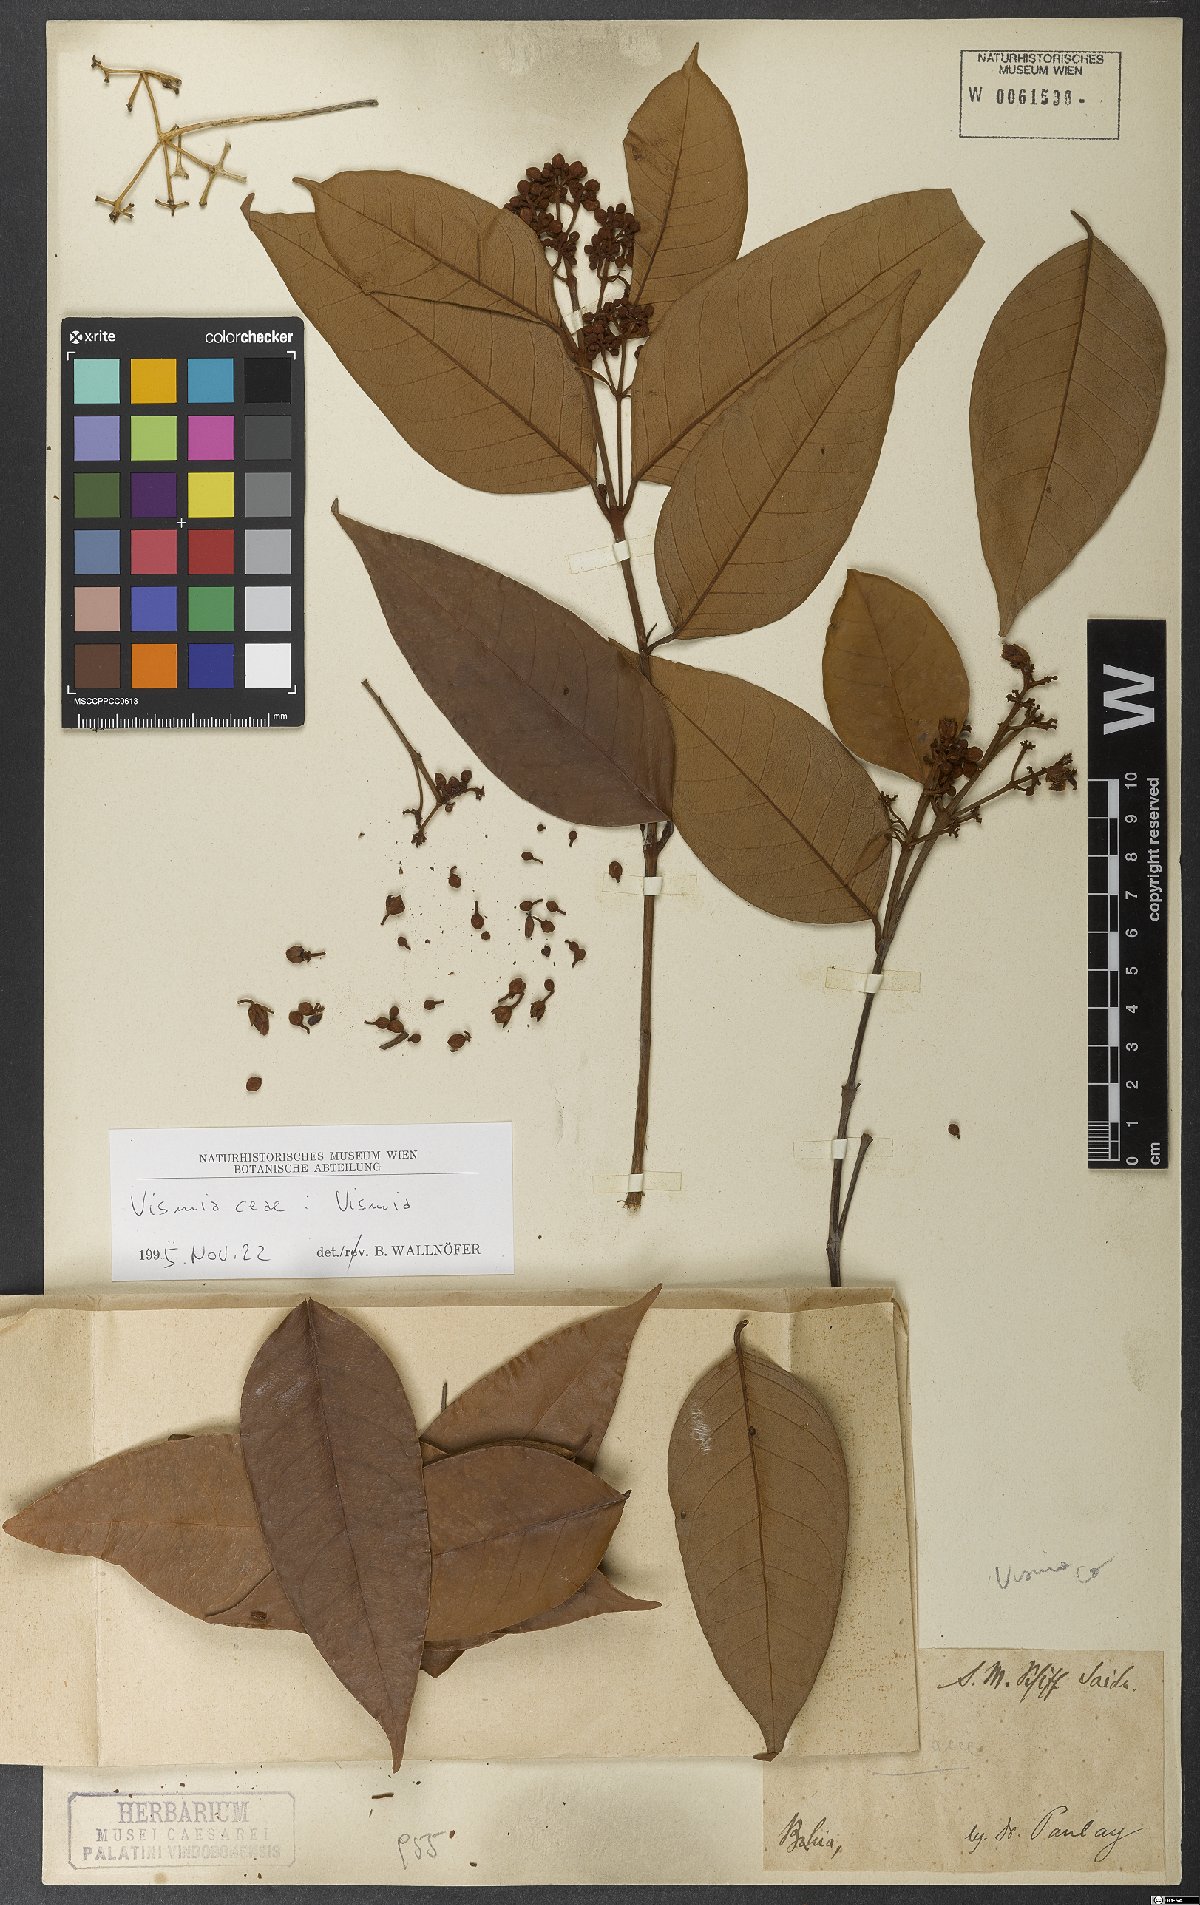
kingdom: Plantae
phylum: Tracheophyta
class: Magnoliopsida
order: Malpighiales
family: Hypericaceae
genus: Vismia
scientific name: Vismia guianensis
